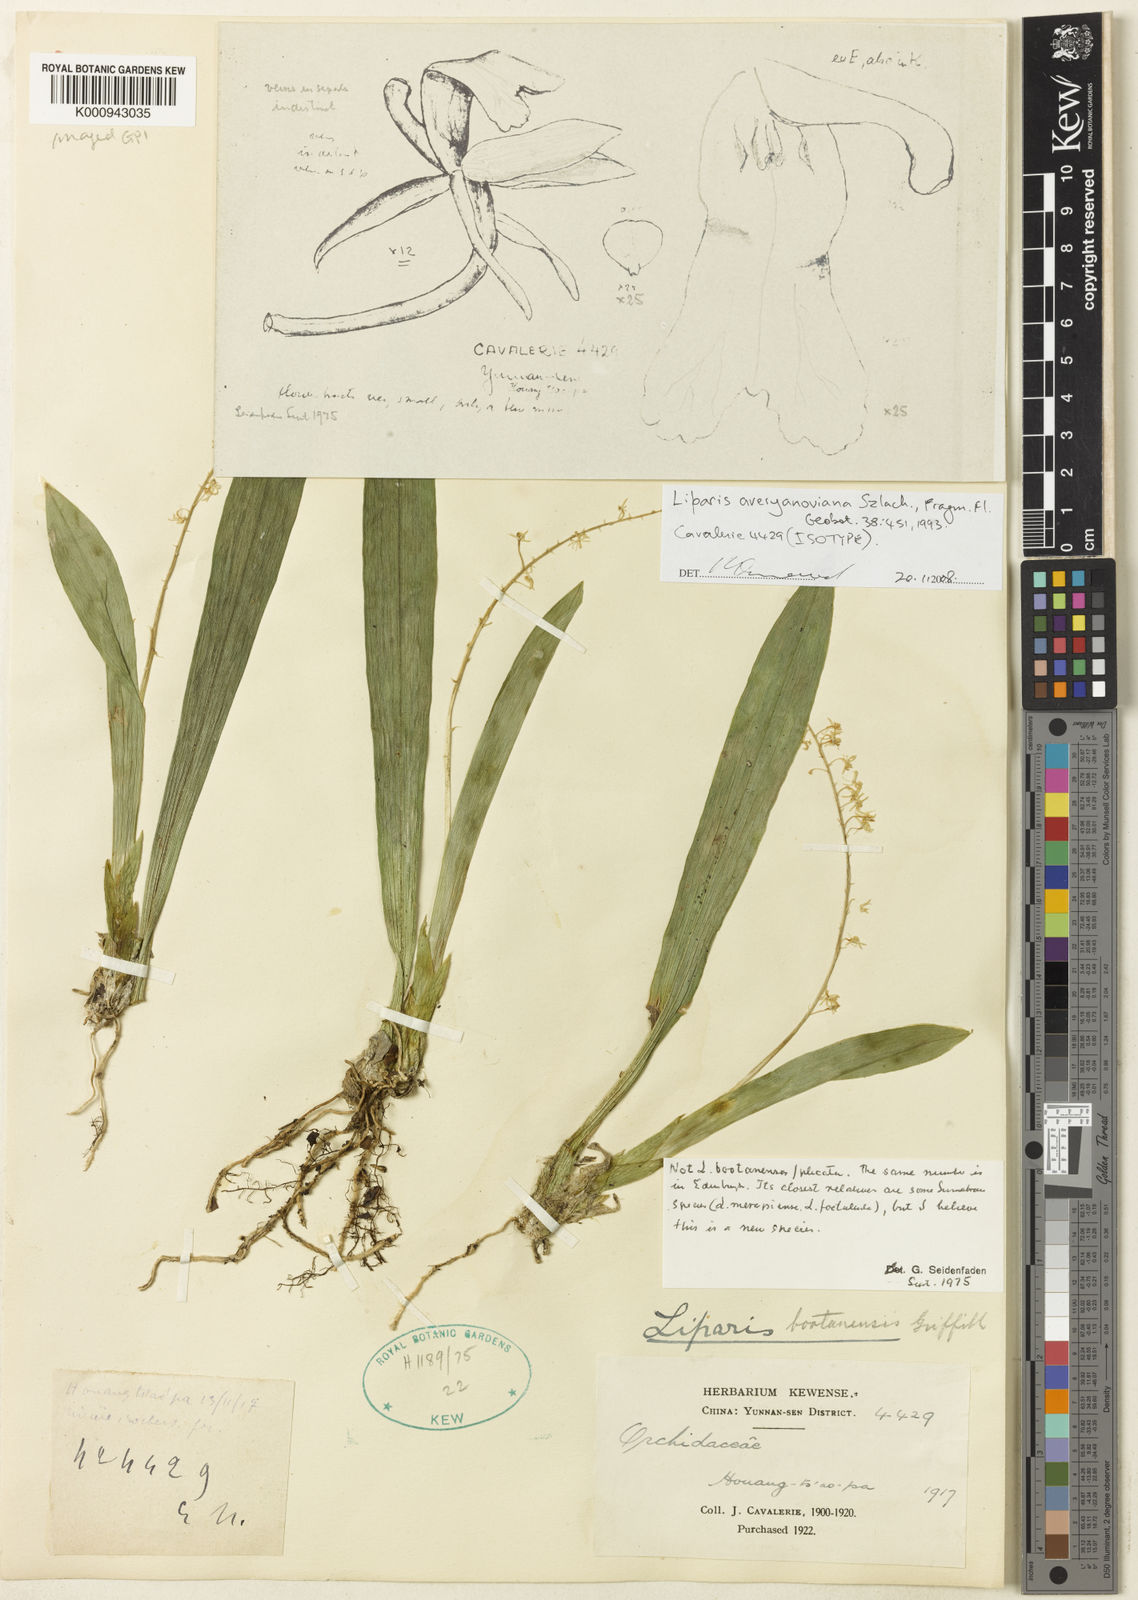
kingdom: Plantae
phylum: Tracheophyta
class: Liliopsida
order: Asparagales
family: Orchidaceae
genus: Liparis
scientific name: Liparis averyanoviana
